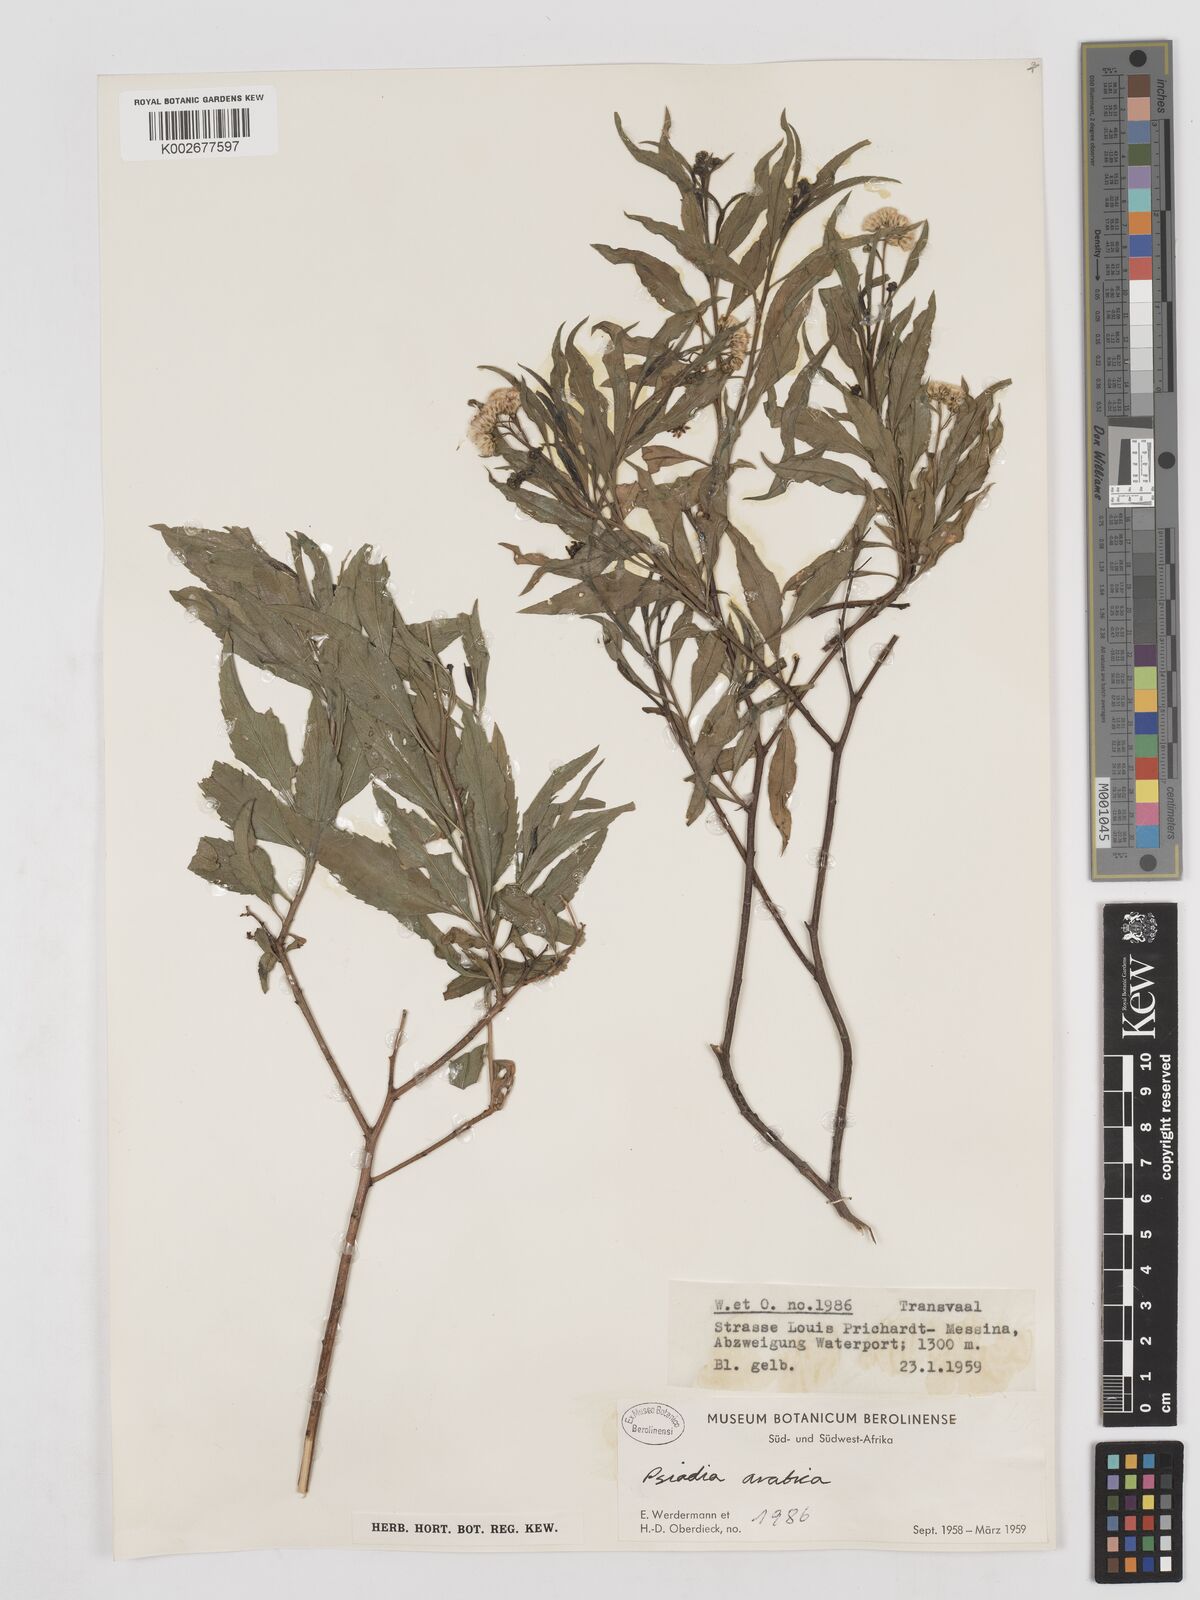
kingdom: Plantae
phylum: Tracheophyta
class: Magnoliopsida
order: Asterales
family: Asteraceae
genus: Psiadia
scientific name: Psiadia punctulata
